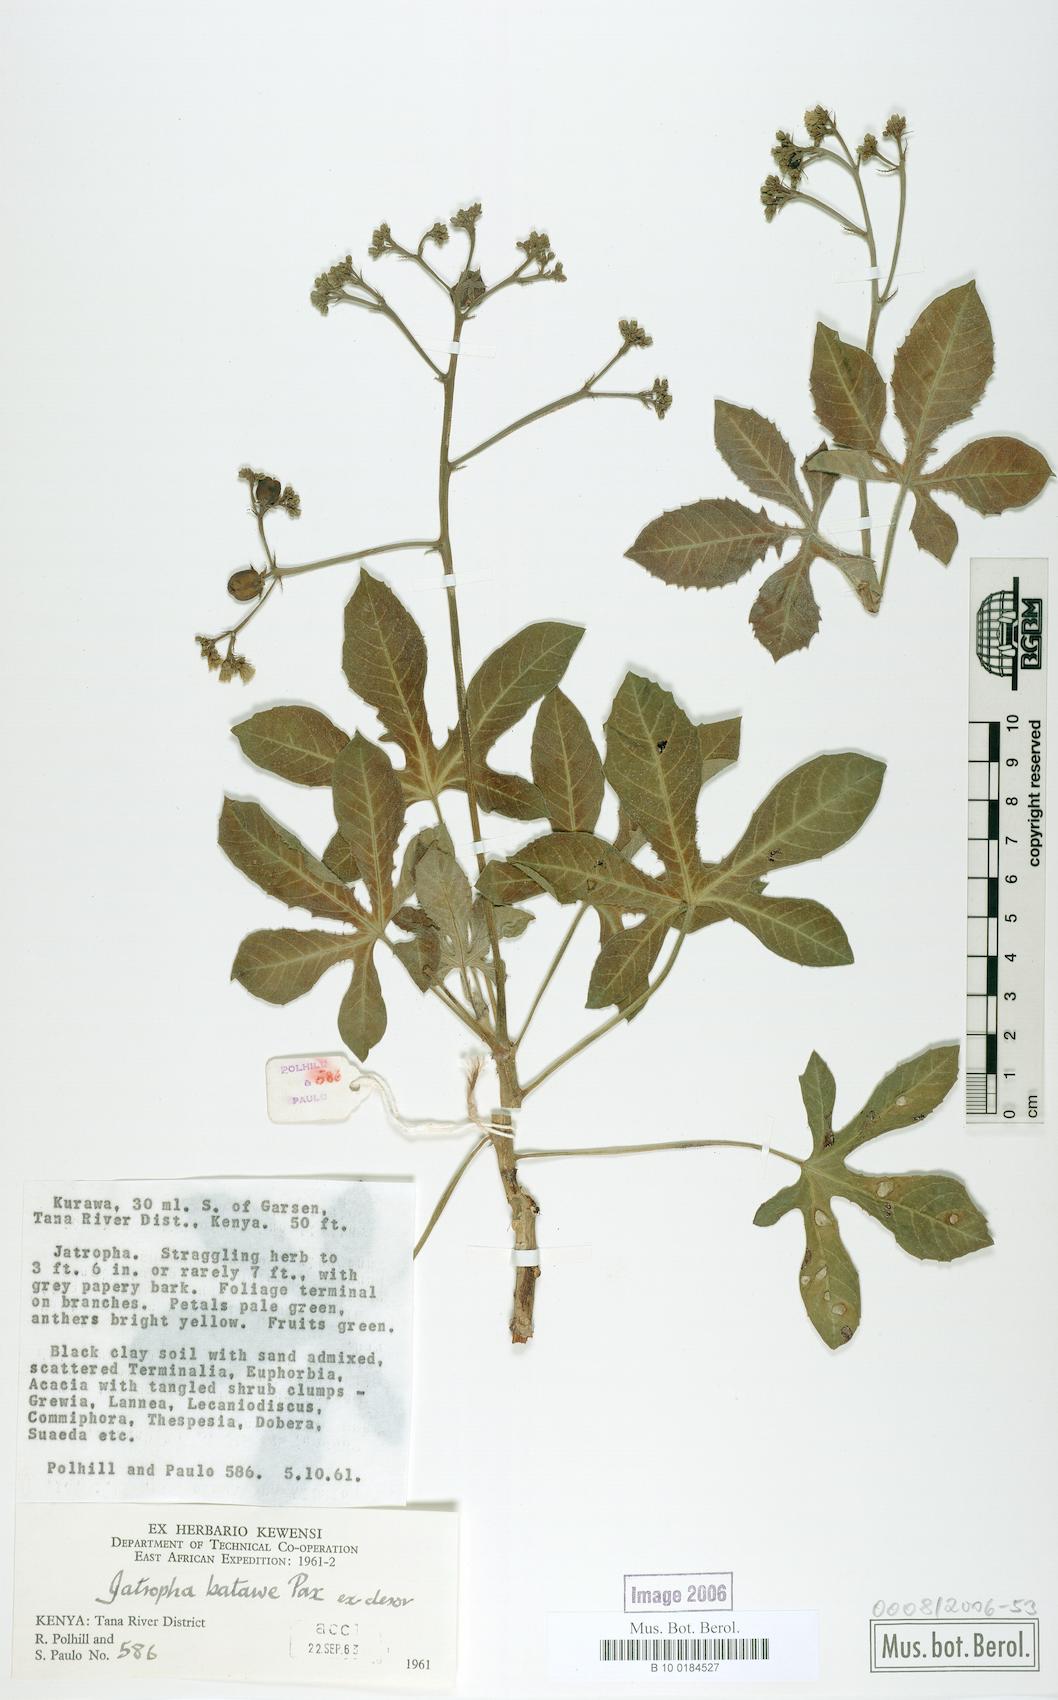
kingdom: Plantae
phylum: Tracheophyta
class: Magnoliopsida
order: Malpighiales
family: Euphorbiaceae
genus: Jatropha
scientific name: Jatropha stuhlmannii
